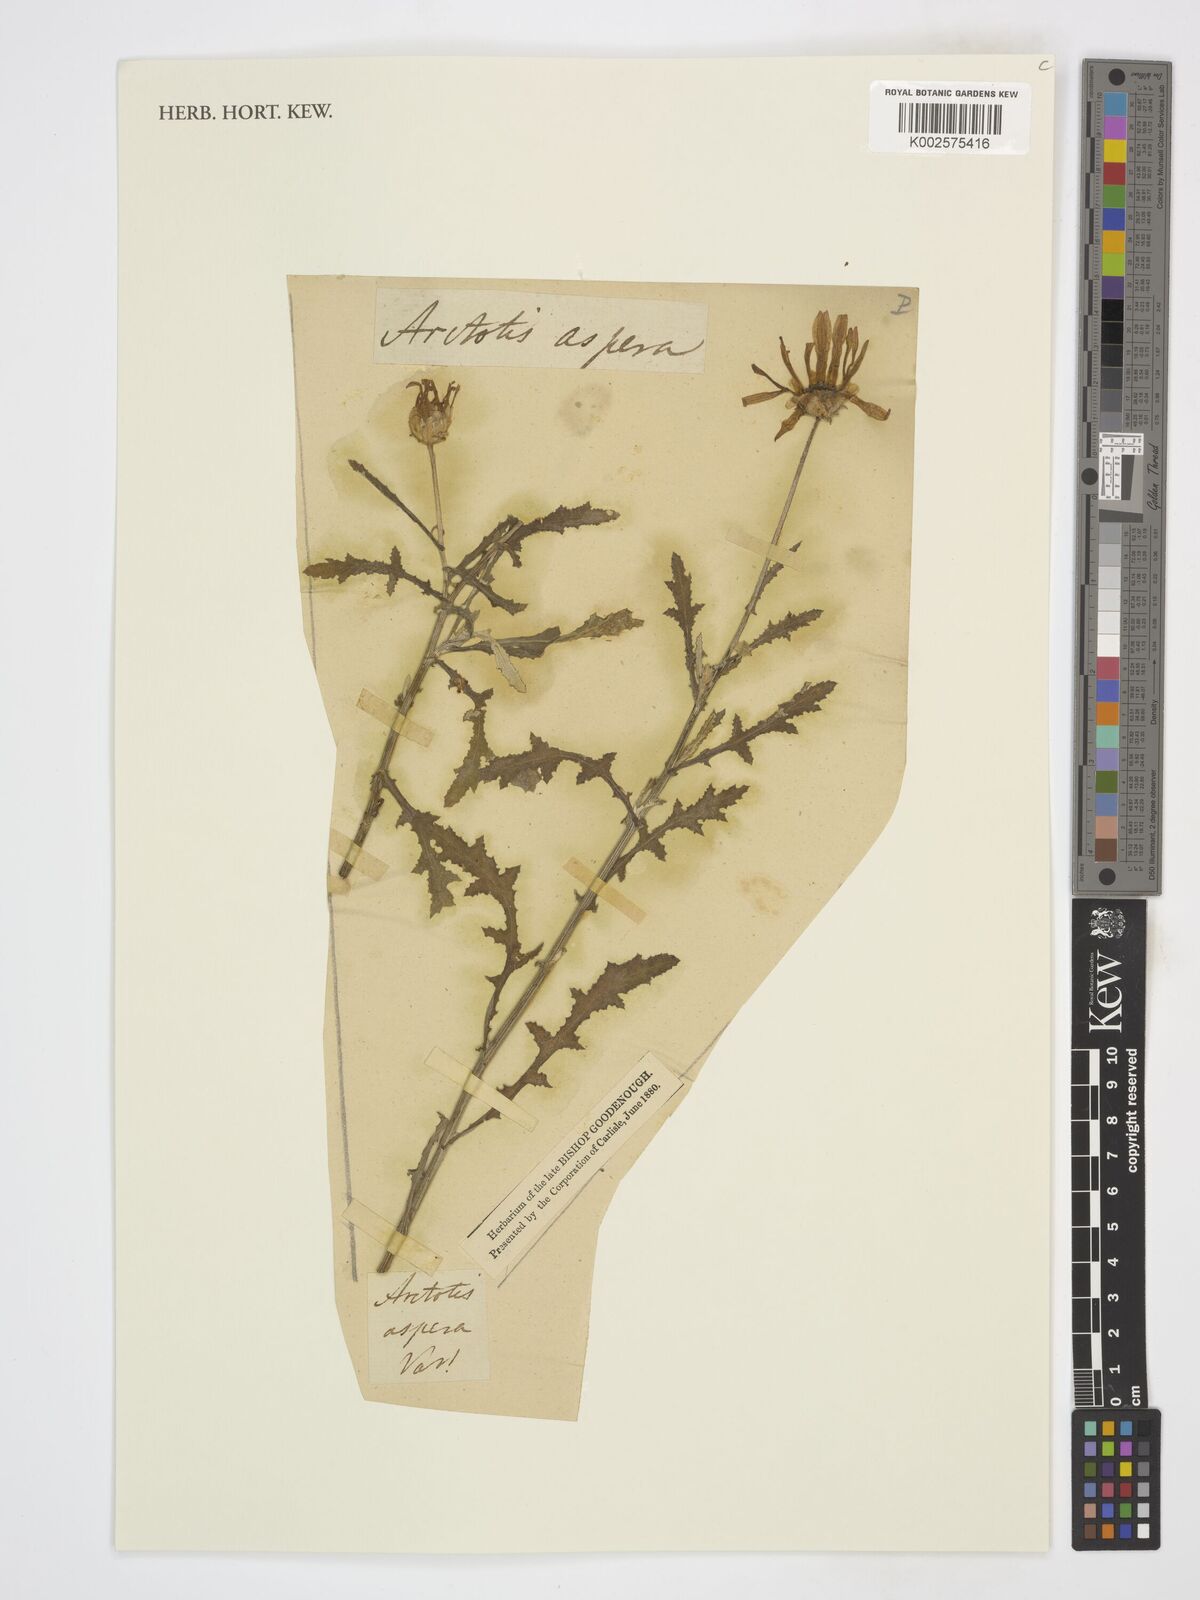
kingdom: Plantae
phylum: Tracheophyta
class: Magnoliopsida
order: Asterales
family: Asteraceae
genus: Arctotis
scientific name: Arctotis
